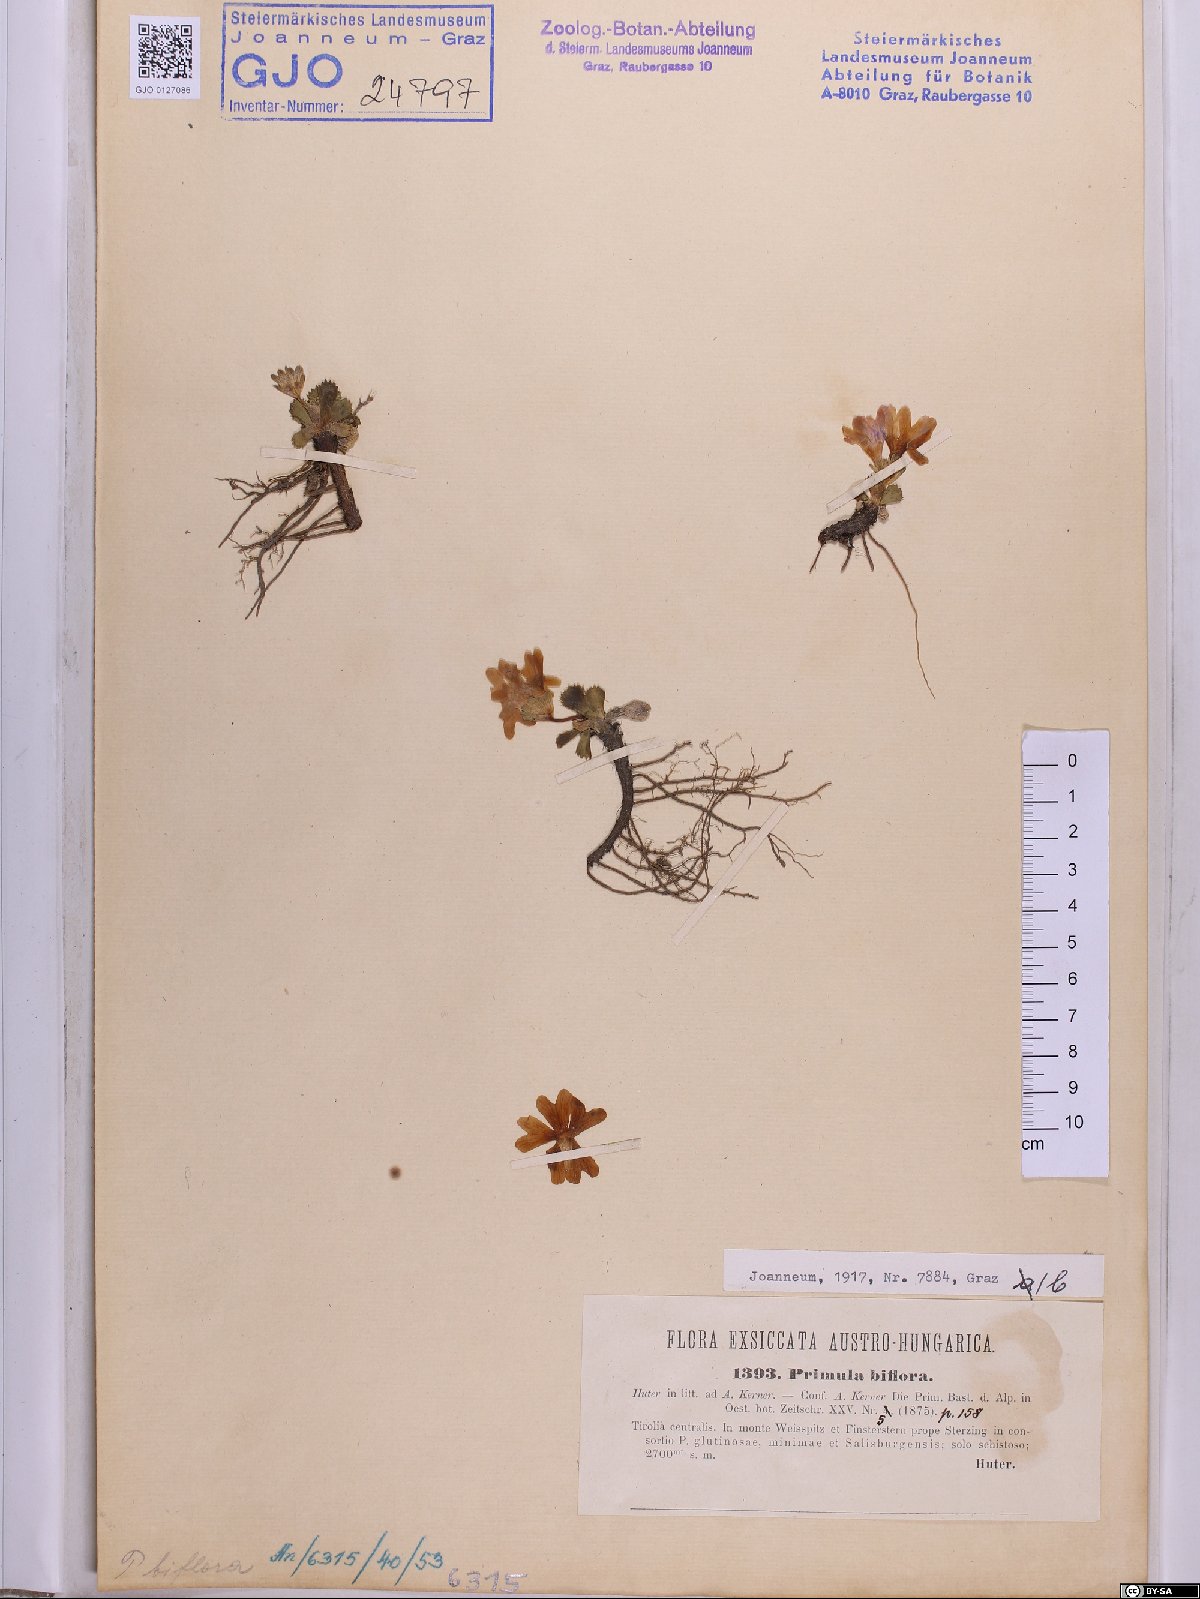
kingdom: Plantae
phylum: Tracheophyta
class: Magnoliopsida
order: Ericales
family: Primulaceae
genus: Primula
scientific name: Primula floerkeana
